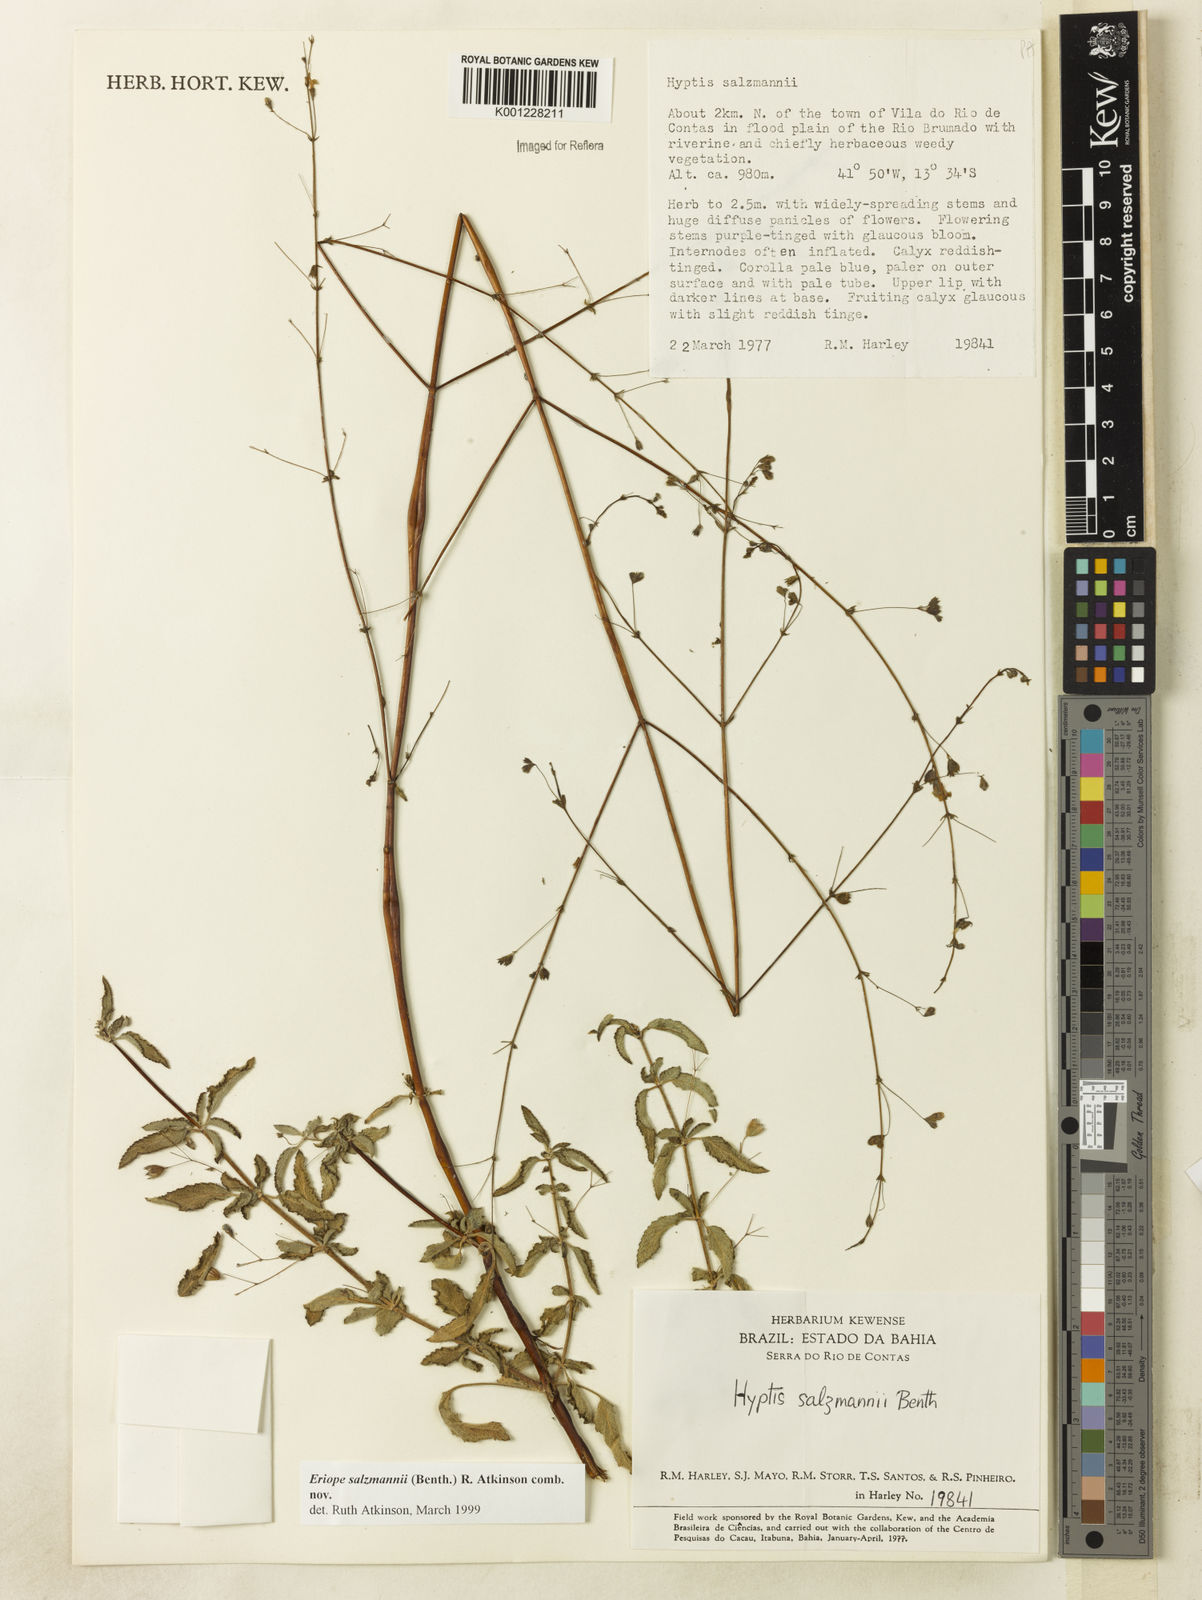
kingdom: Plantae
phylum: Tracheophyta
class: Magnoliopsida
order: Lamiales
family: Lamiaceae
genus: Hypenia
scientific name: Hypenia salzmannii
